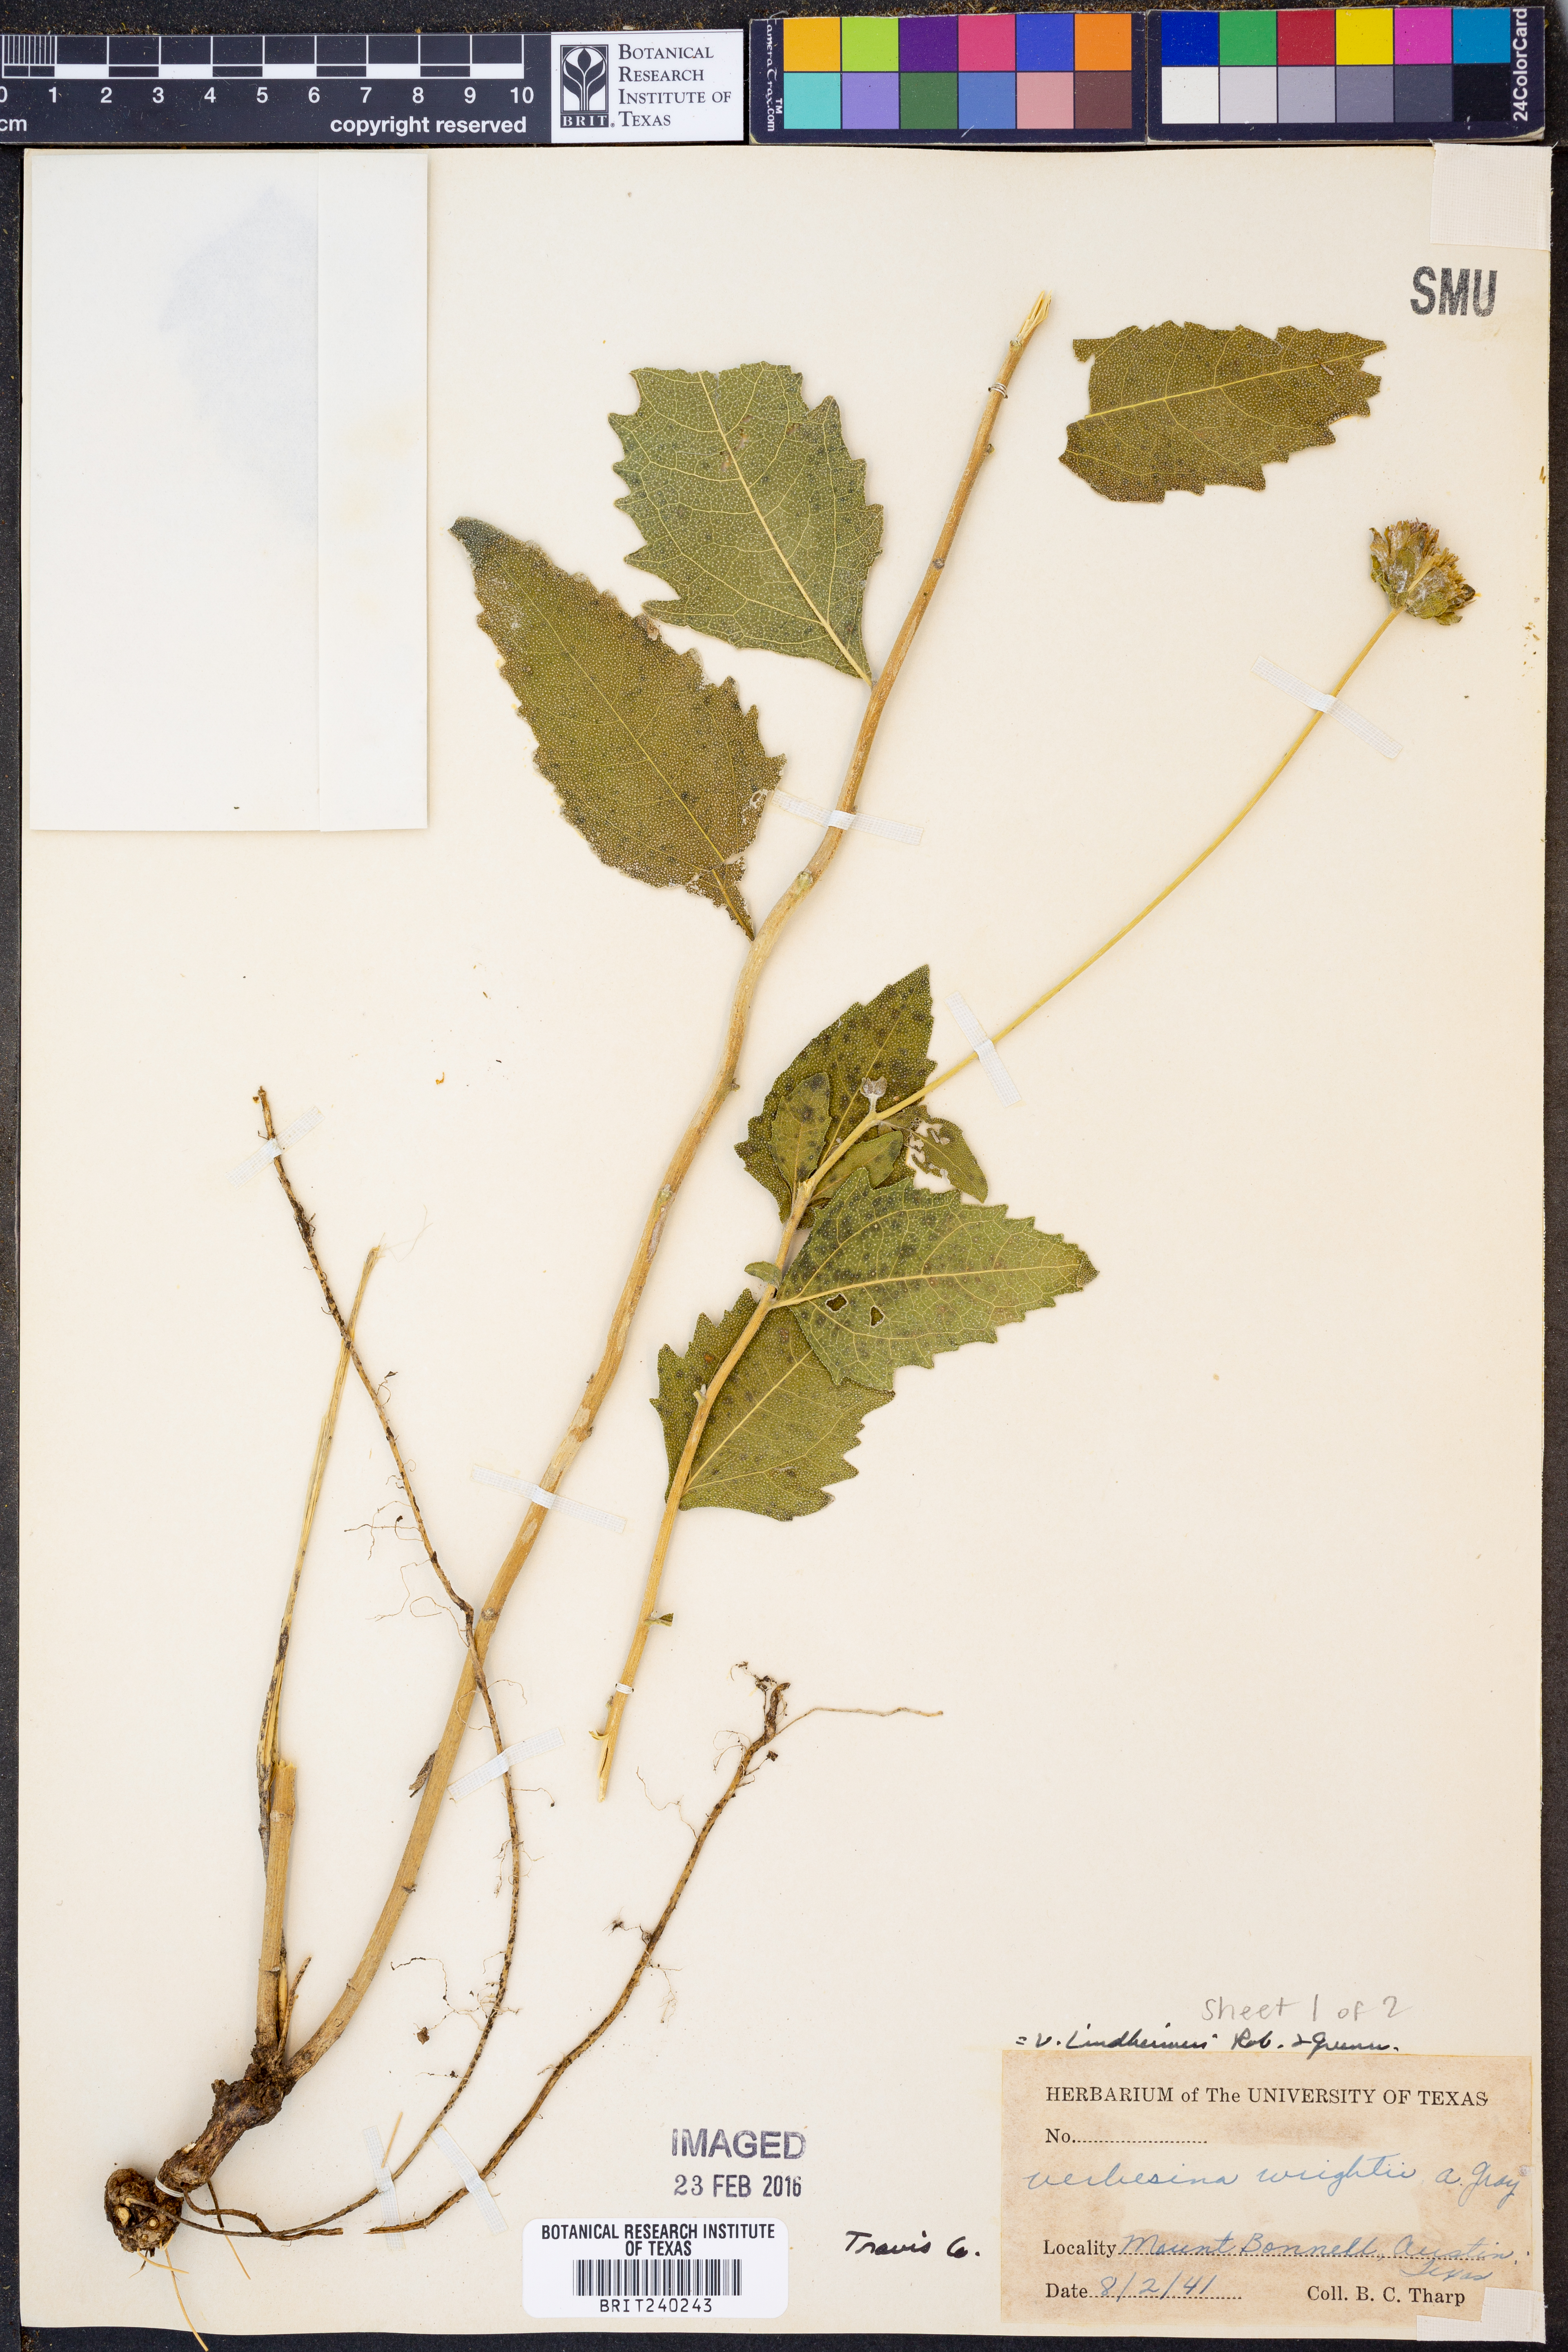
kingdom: Plantae
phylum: Tracheophyta
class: Magnoliopsida
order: Asterales
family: Asteraceae
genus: Verbesina
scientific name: Verbesina lindheimeri
